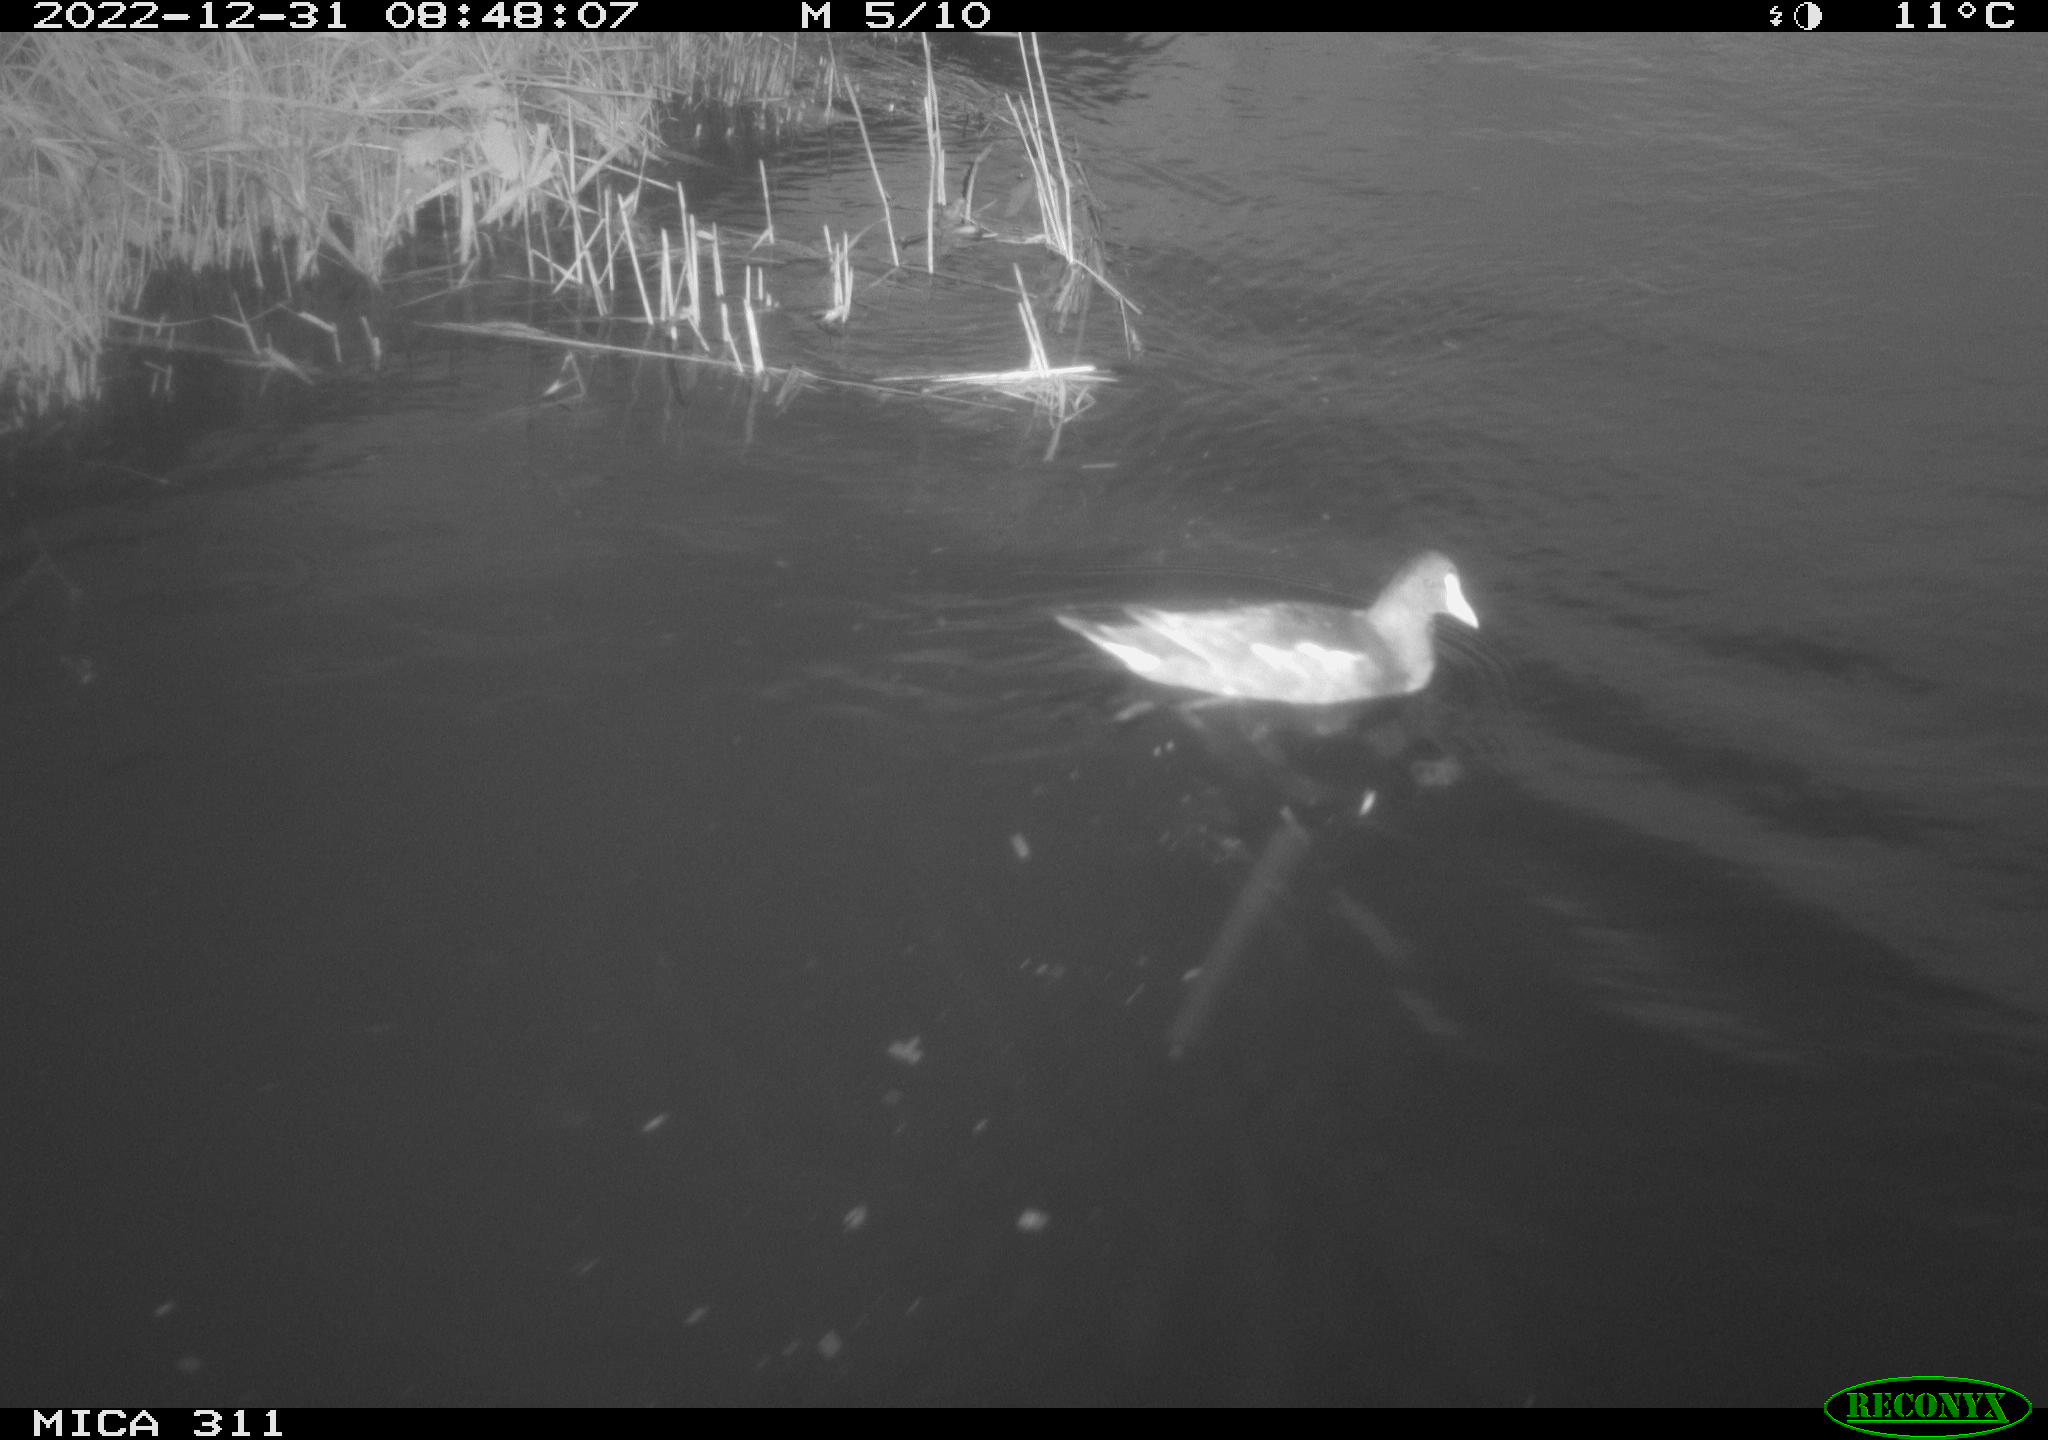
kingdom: Animalia
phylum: Chordata
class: Aves
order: Anseriformes
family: Anatidae
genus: Anas
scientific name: Anas
